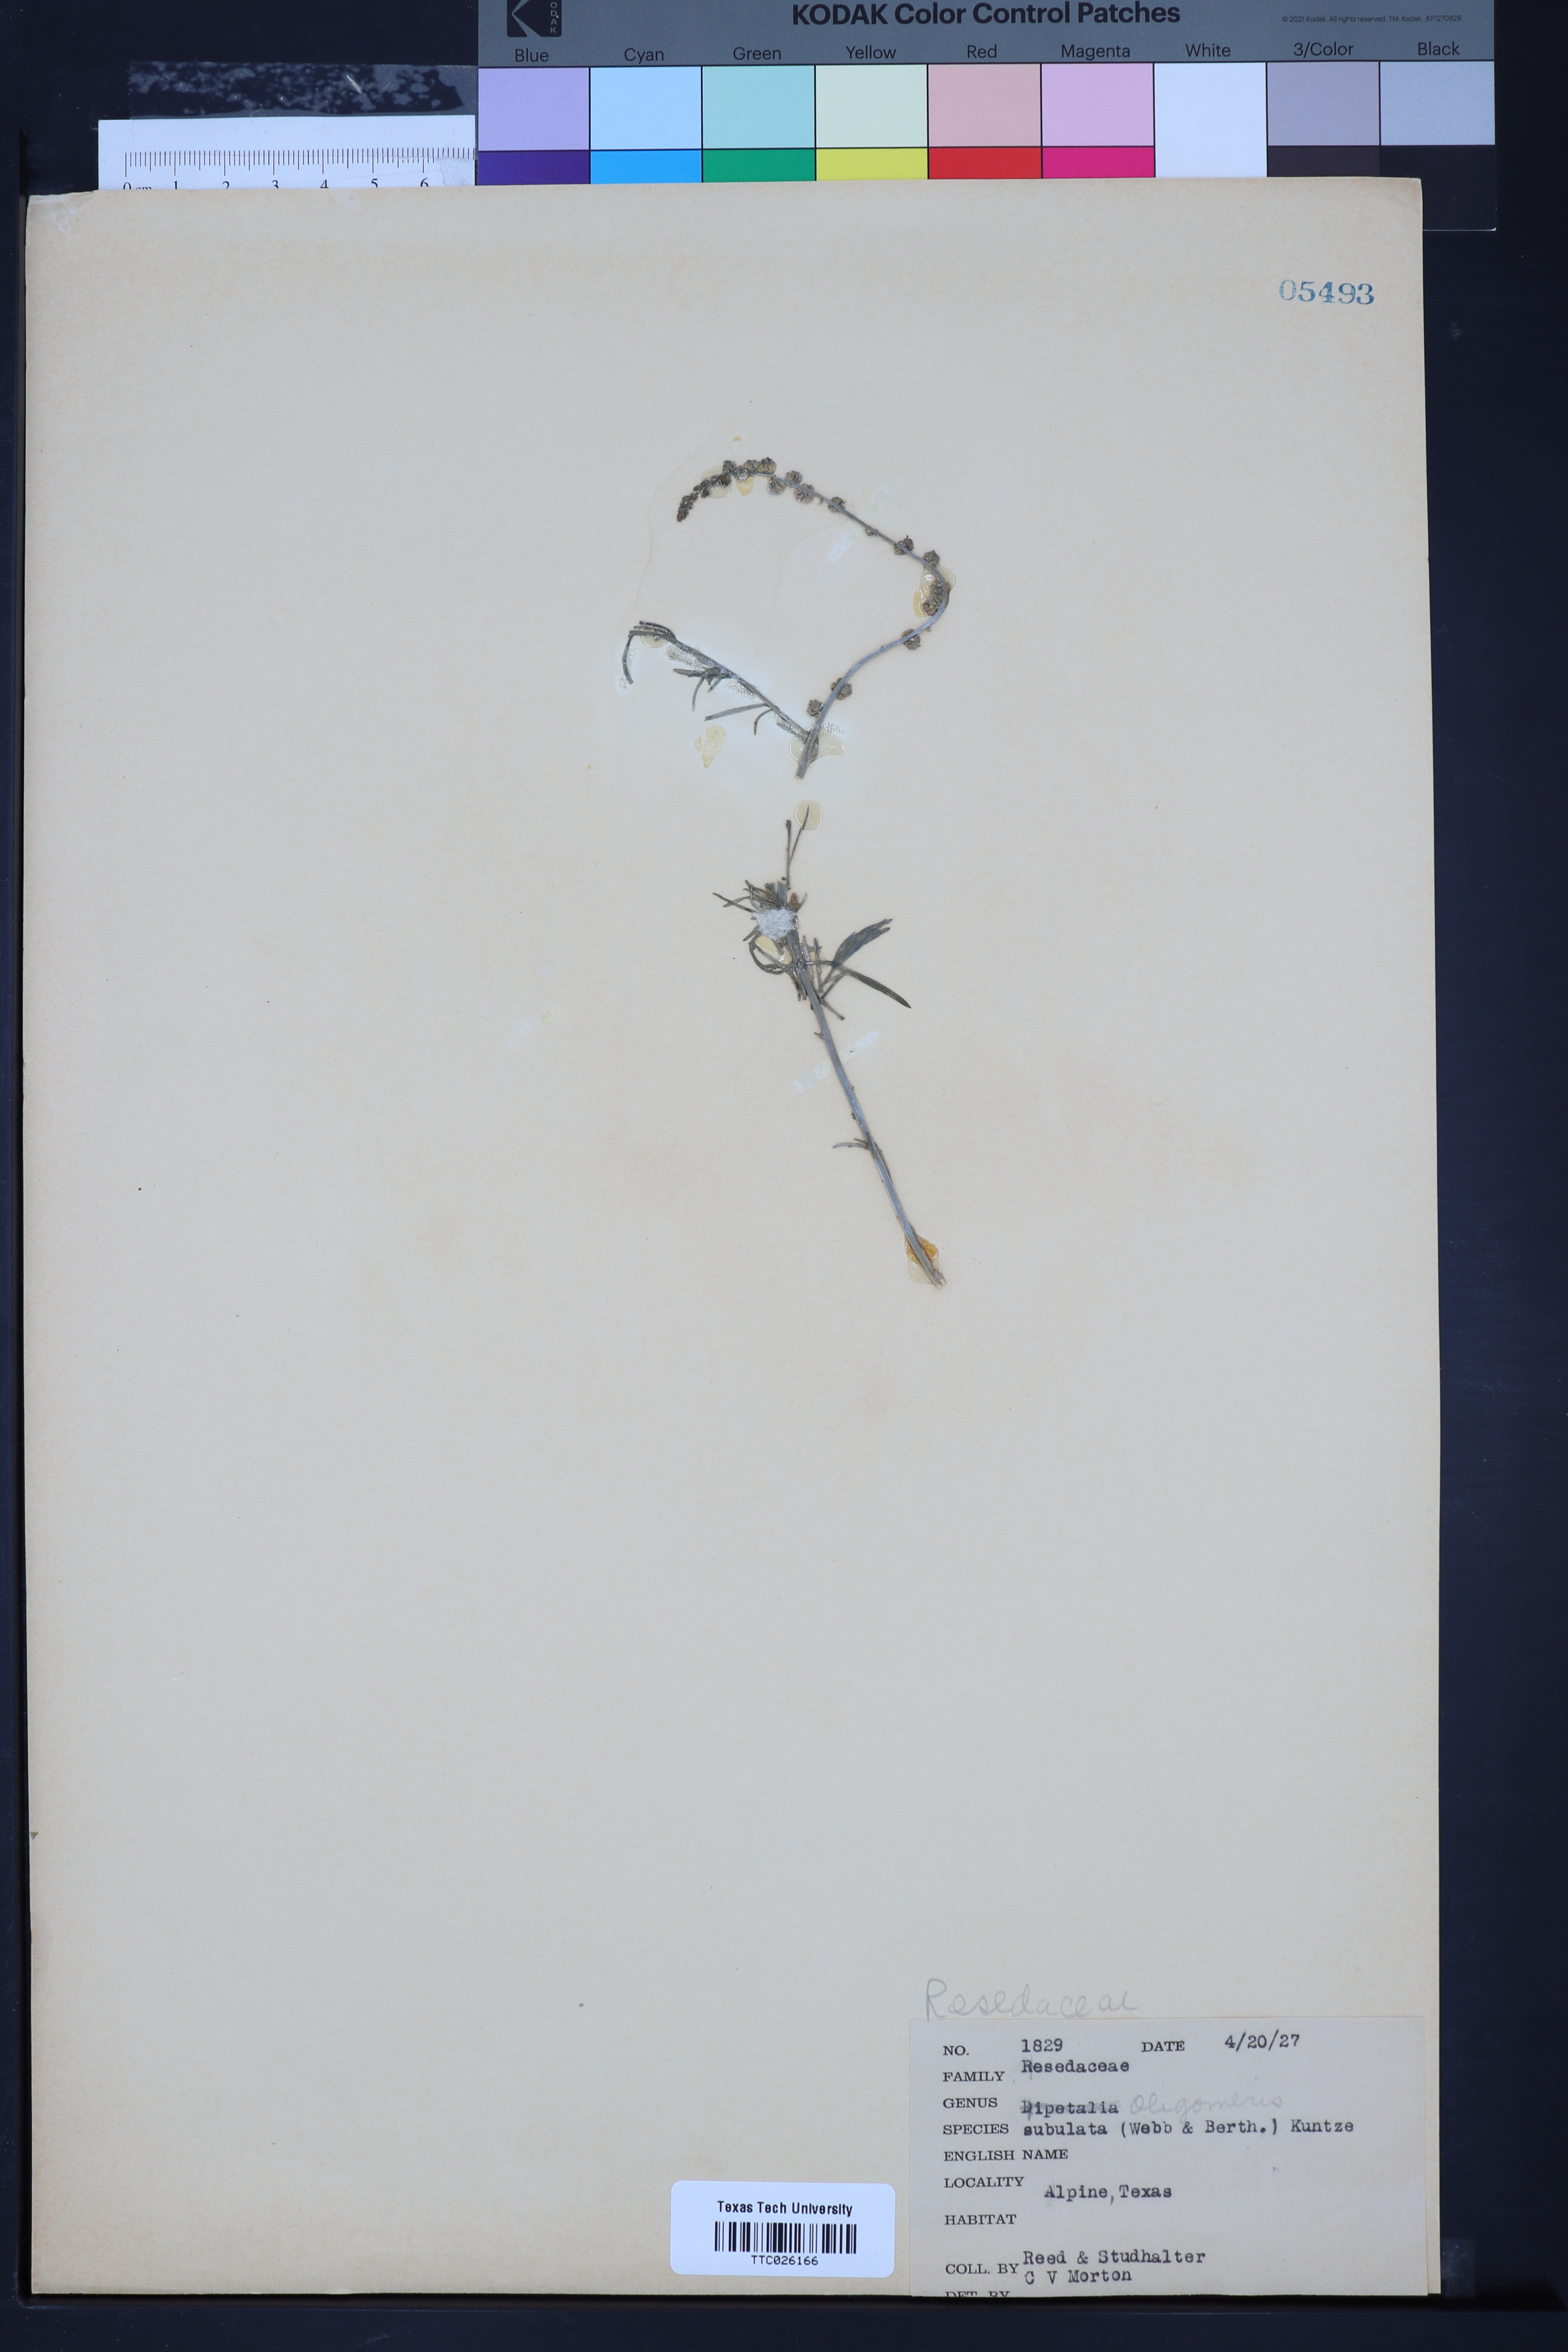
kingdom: Plantae
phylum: Tracheophyta
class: Magnoliopsida
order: Brassicales
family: Resedaceae
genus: Oligomeris
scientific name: Oligomeris linifolia
